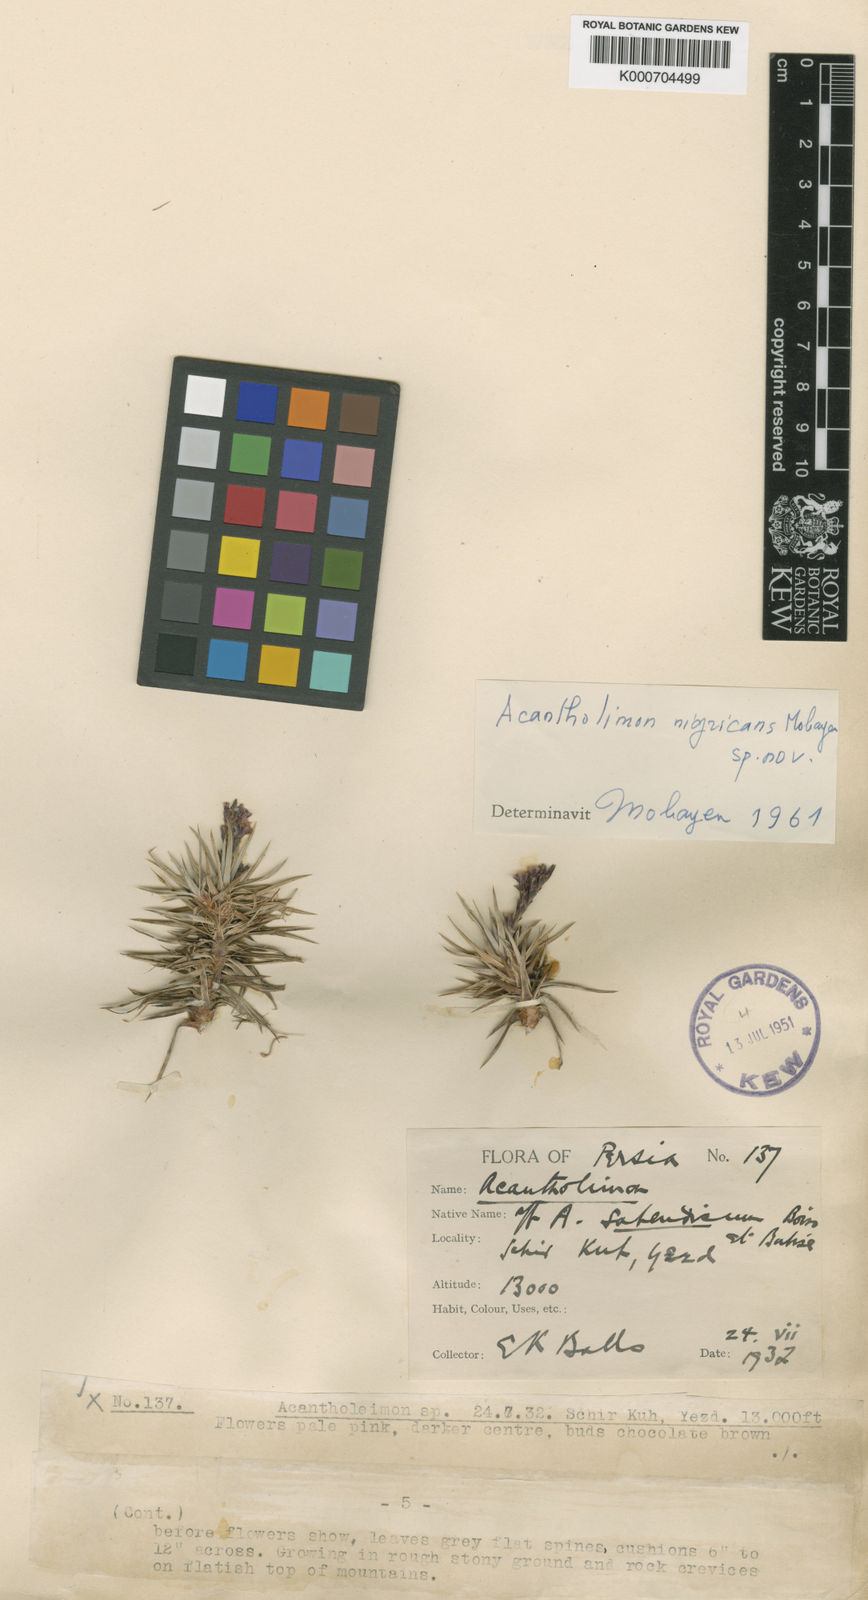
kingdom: Plantae
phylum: Tracheophyta
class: Magnoliopsida
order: Caryophyllales
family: Plumbaginaceae
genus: Acantholimon
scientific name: Acantholimon nigricans
